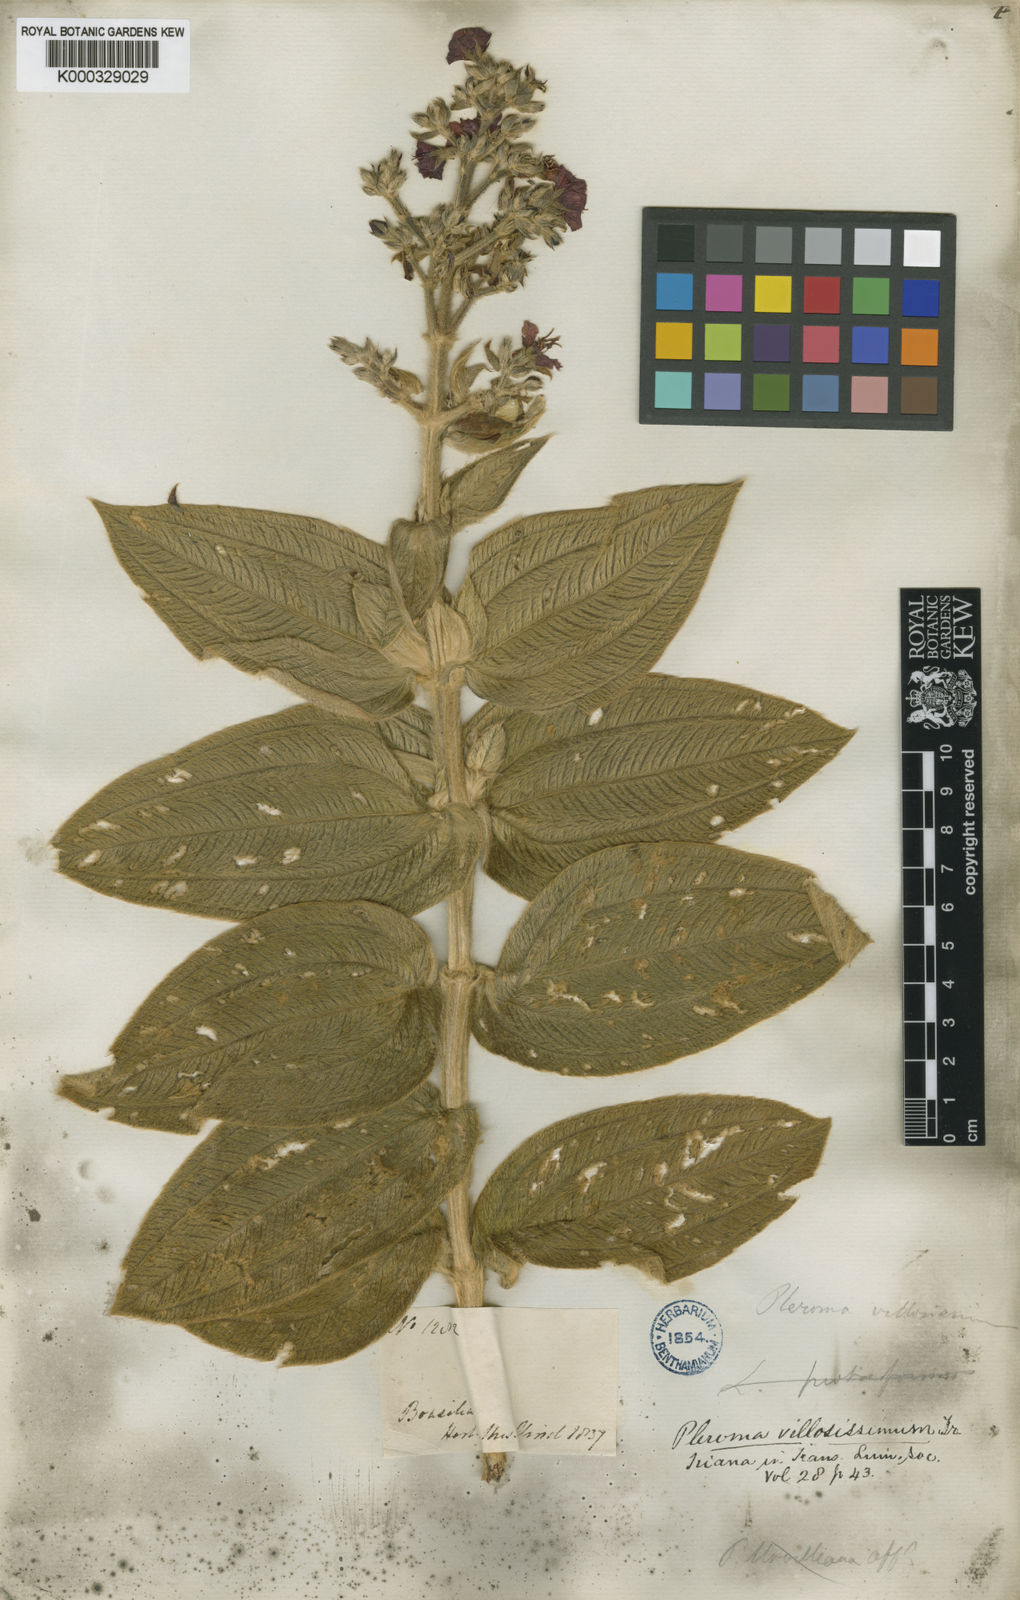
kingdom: Plantae
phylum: Tracheophyta
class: Magnoliopsida
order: Myrtales
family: Melastomataceae
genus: Pleroma
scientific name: Pleroma villosissimum
